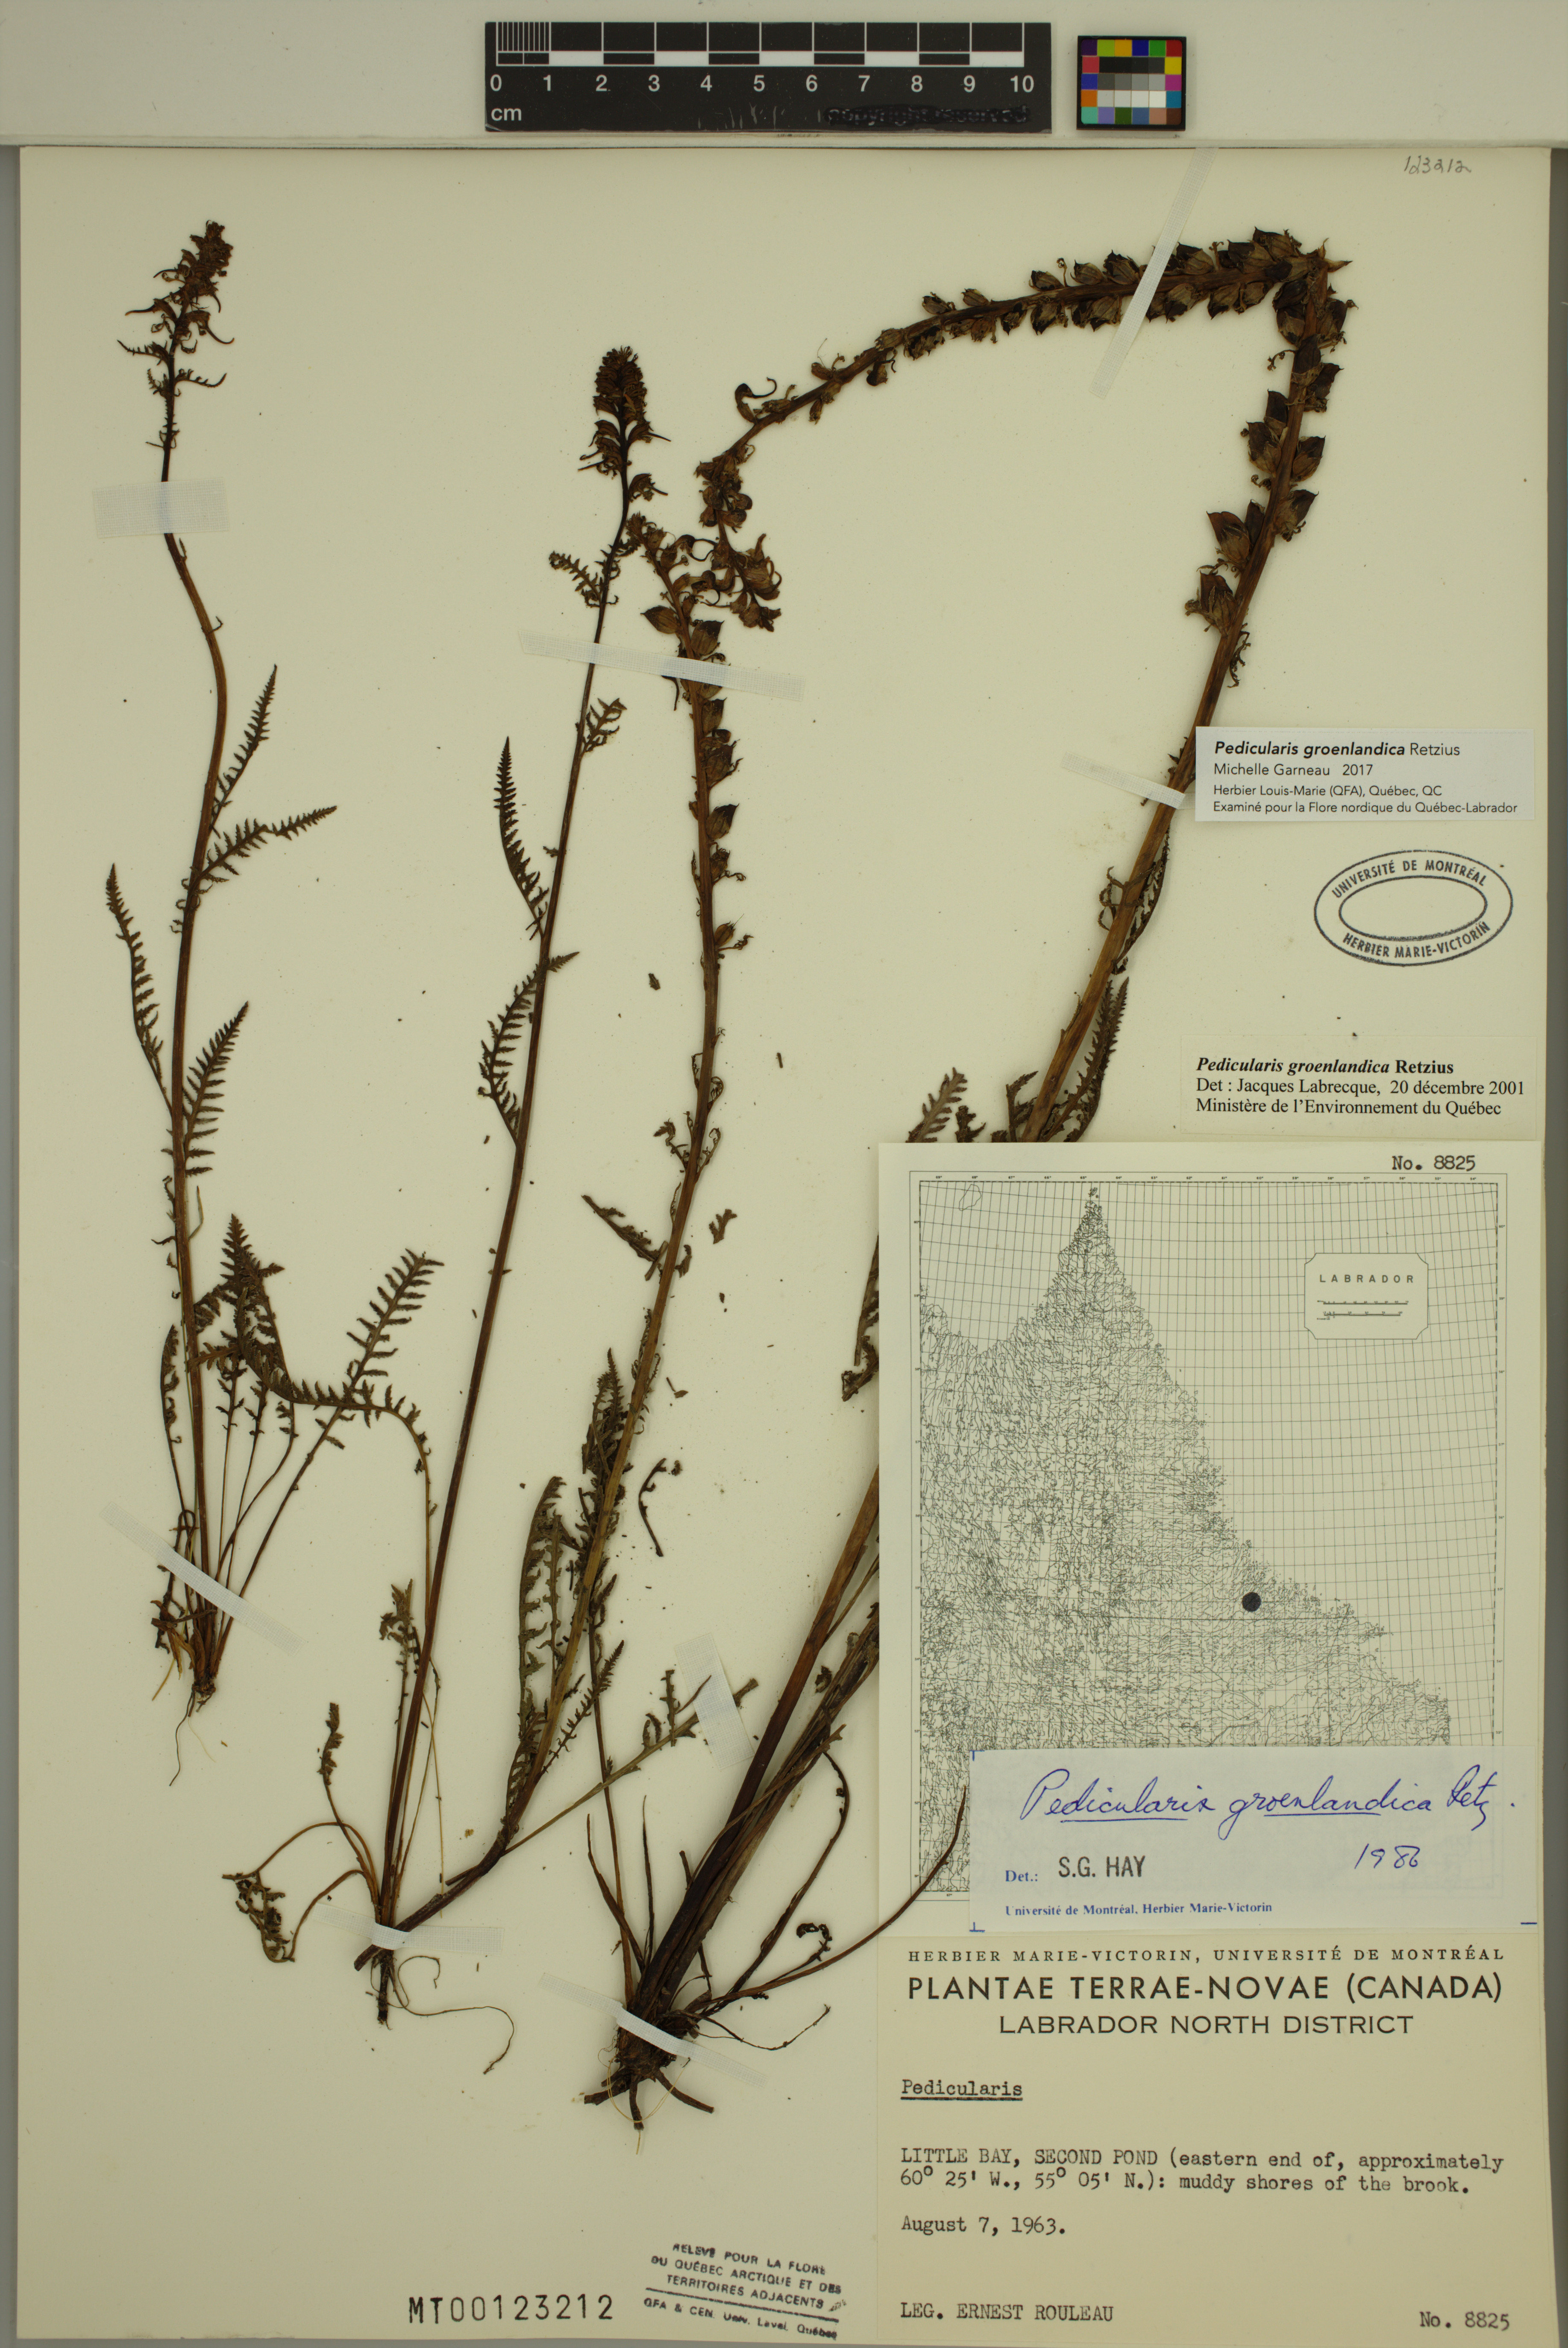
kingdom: Plantae
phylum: Tracheophyta
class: Magnoliopsida
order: Lamiales
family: Orobanchaceae
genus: Pedicularis
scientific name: Pedicularis groenlandica
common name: Elephant's-head
